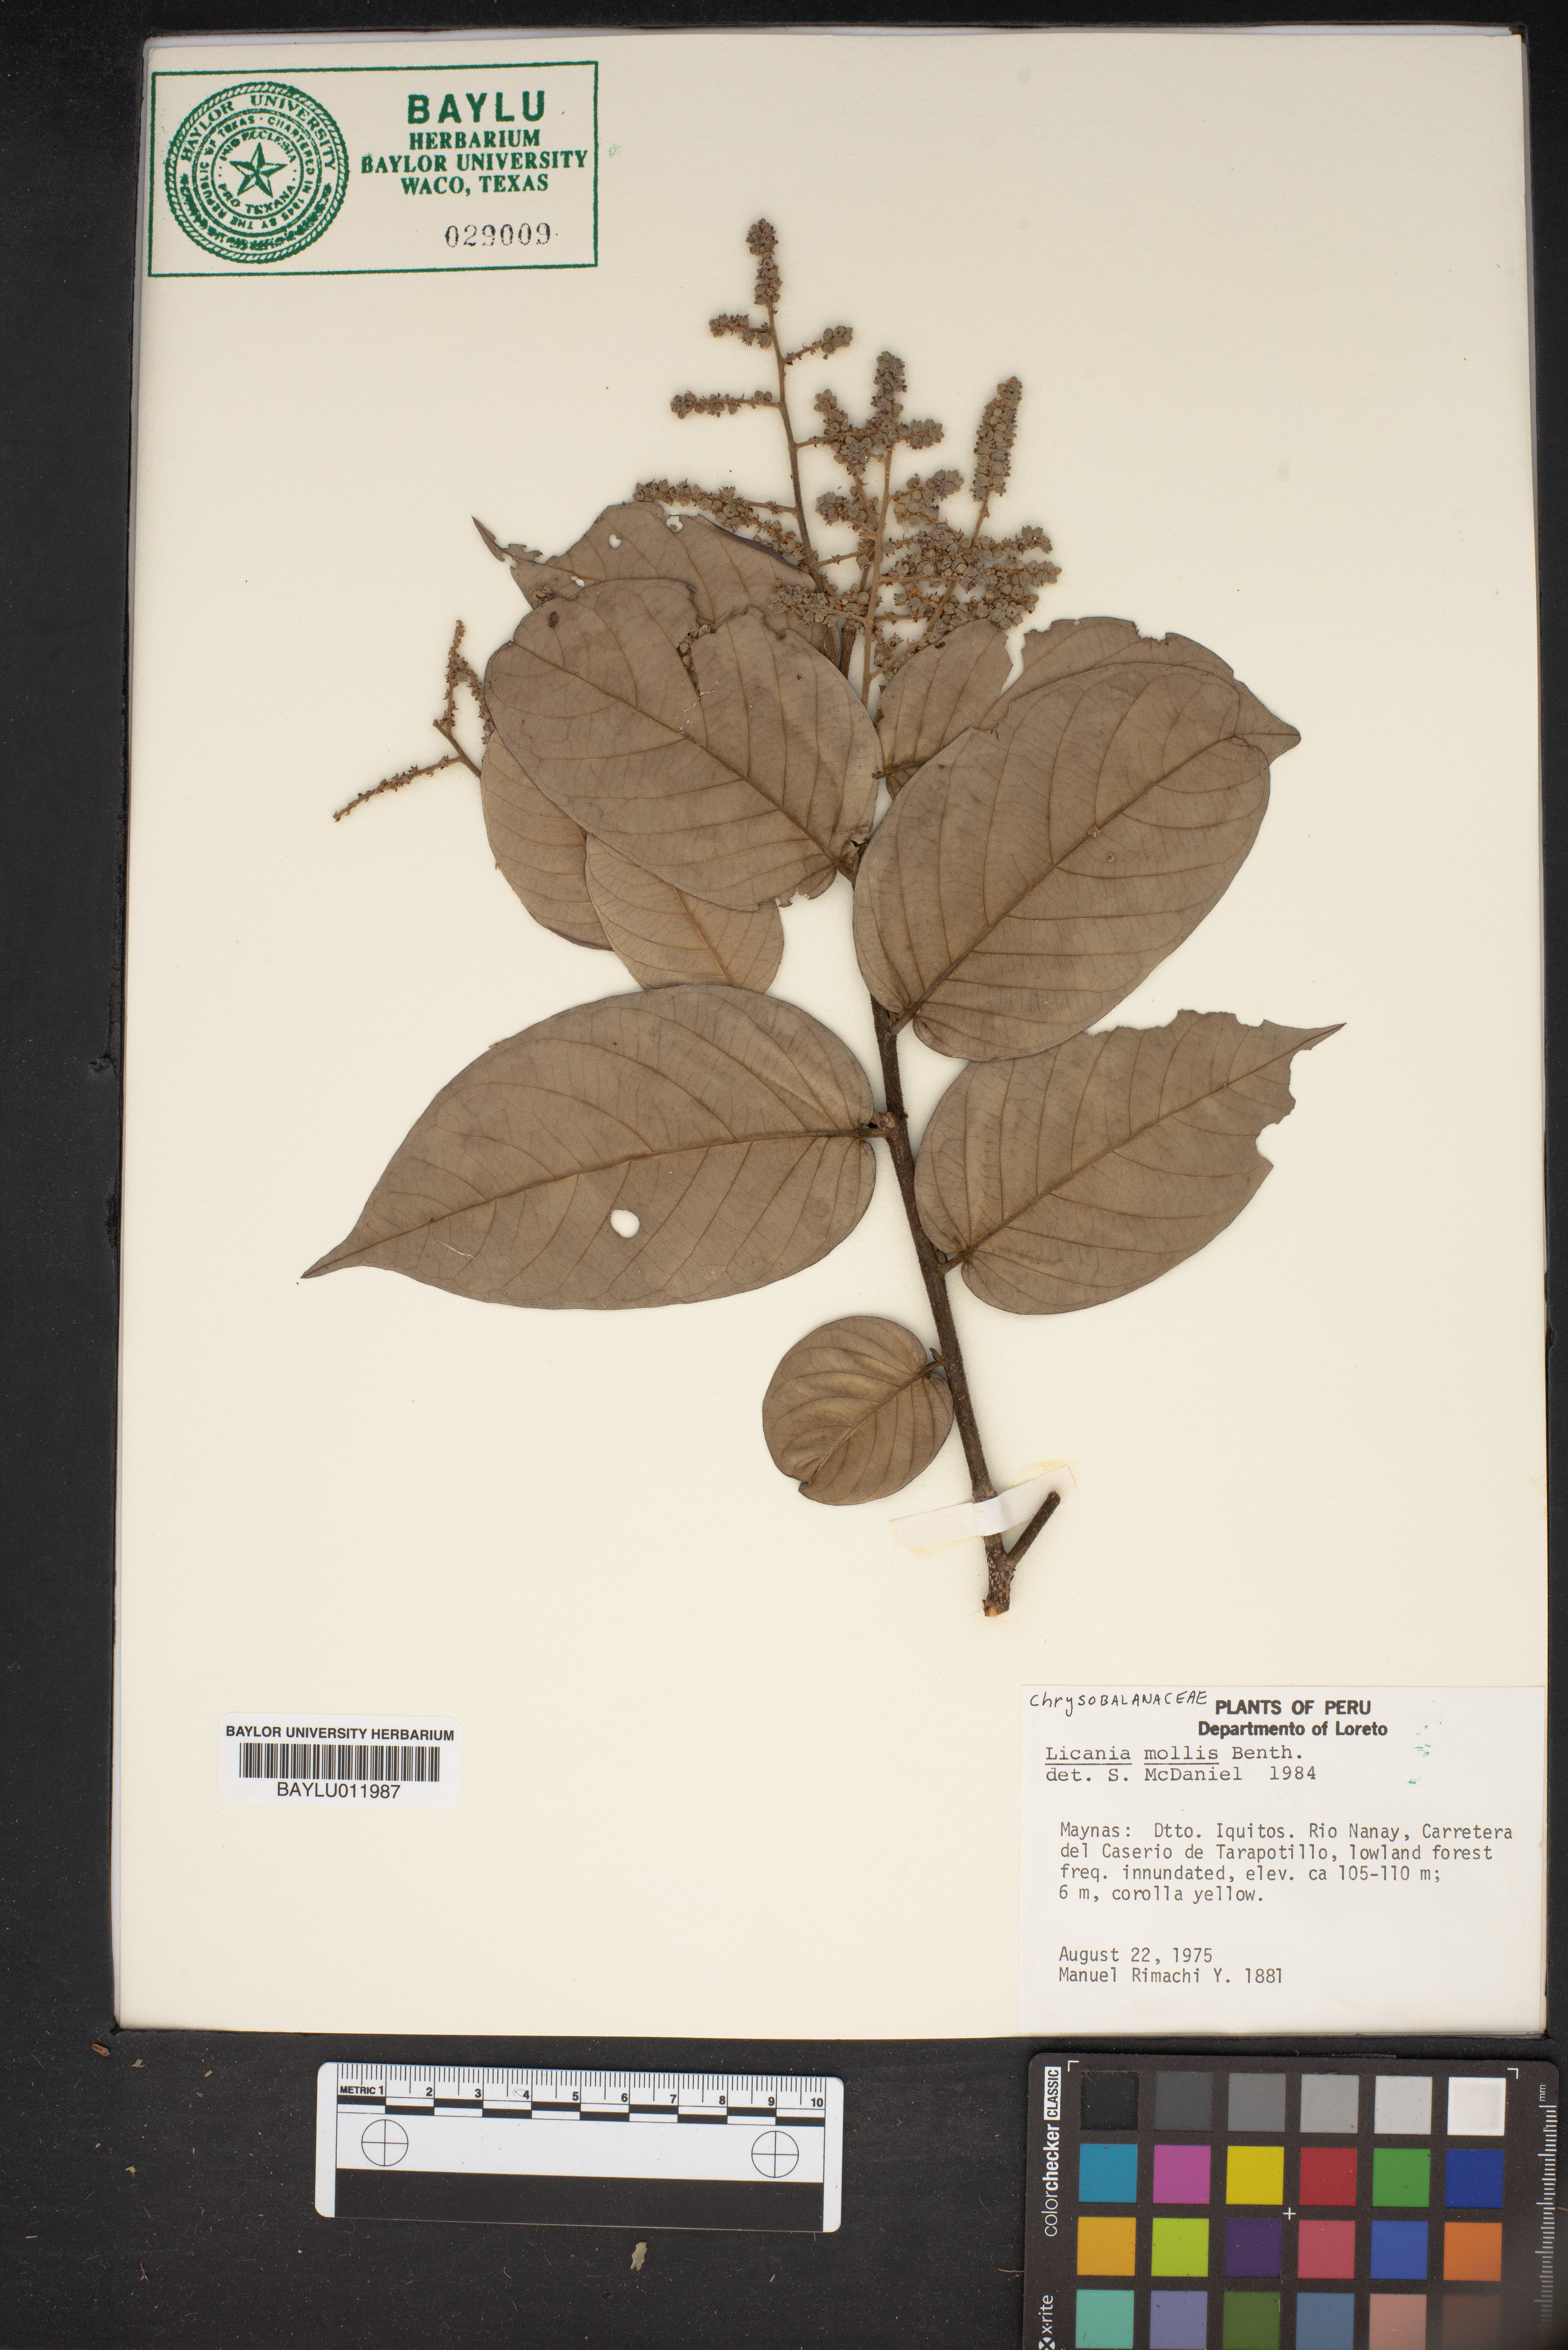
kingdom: Plantae
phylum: Tracheophyta
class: Magnoliopsida
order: Malpighiales
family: Chrysobalanaceae
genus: Licania
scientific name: Licania mollis
